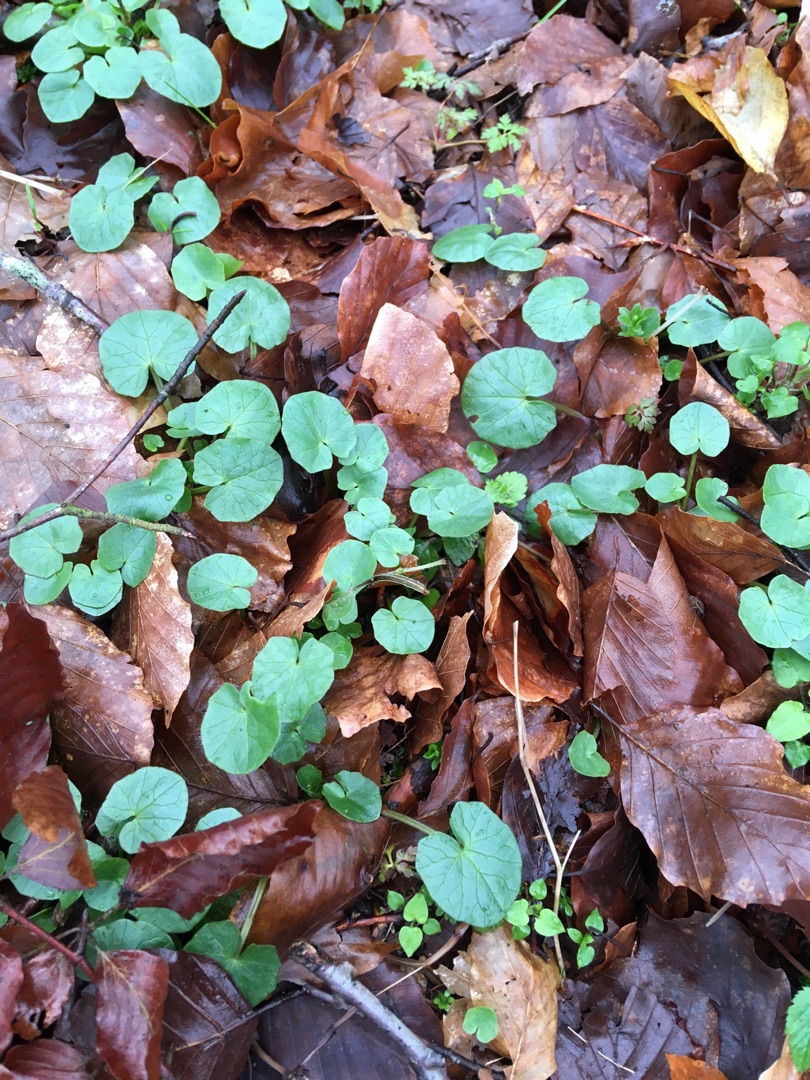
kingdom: Plantae
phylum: Tracheophyta
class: Magnoliopsida
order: Ranunculales
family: Ranunculaceae
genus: Ficaria
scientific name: Ficaria verna
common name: Vorterod
